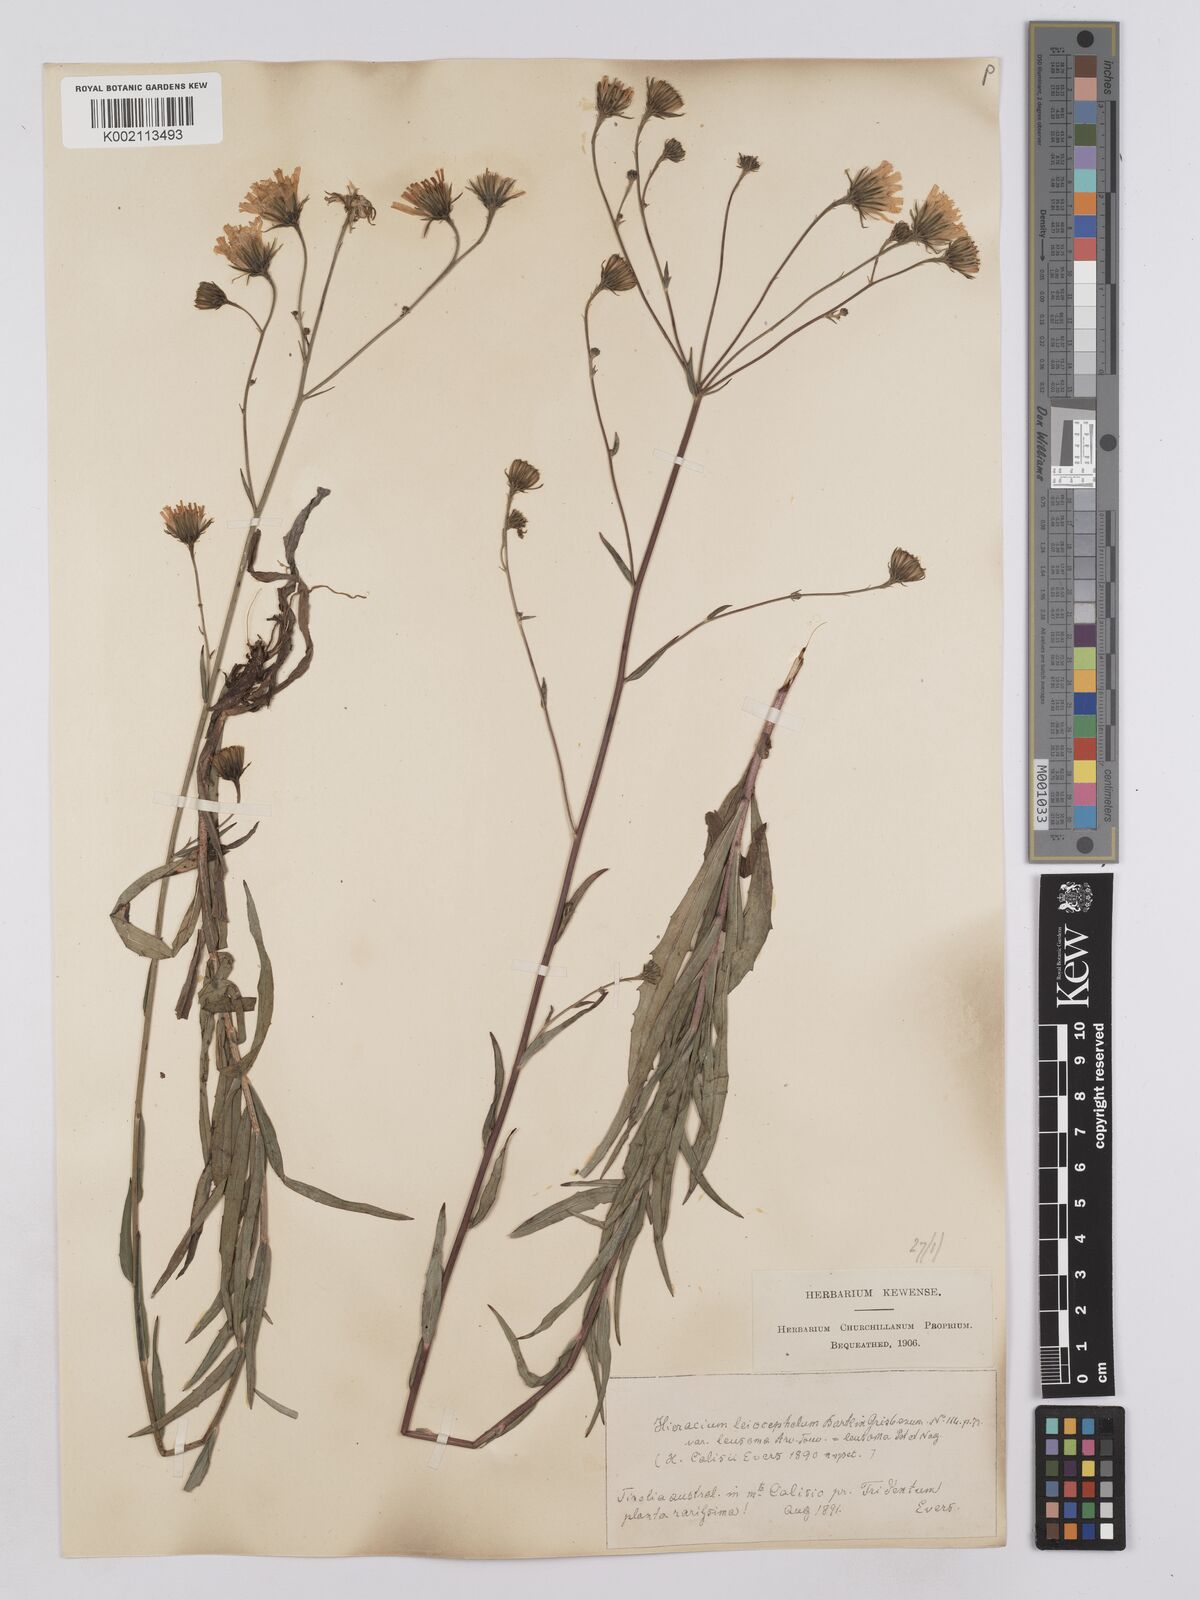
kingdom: Plantae
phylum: Tracheophyta
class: Magnoliopsida
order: Asterales
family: Asteraceae
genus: Hieracium
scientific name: Hieracium leiocephalum
